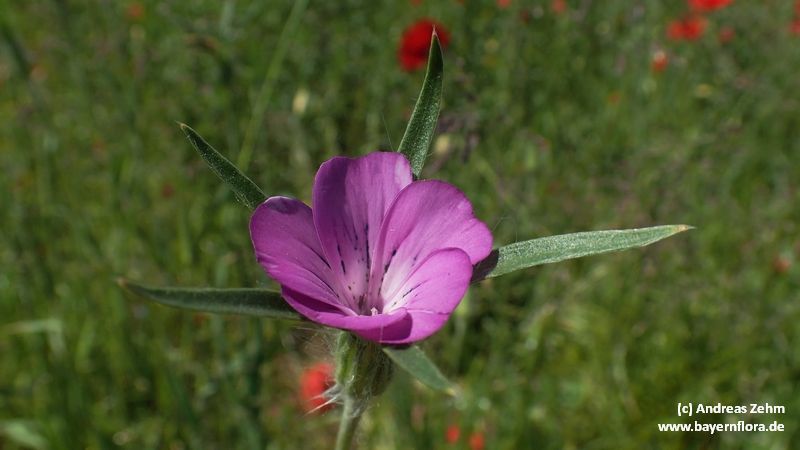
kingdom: Plantae
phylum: Tracheophyta
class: Magnoliopsida
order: Caryophyllales
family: Caryophyllaceae
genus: Agrostemma
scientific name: Agrostemma githago
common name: Common corncockle
